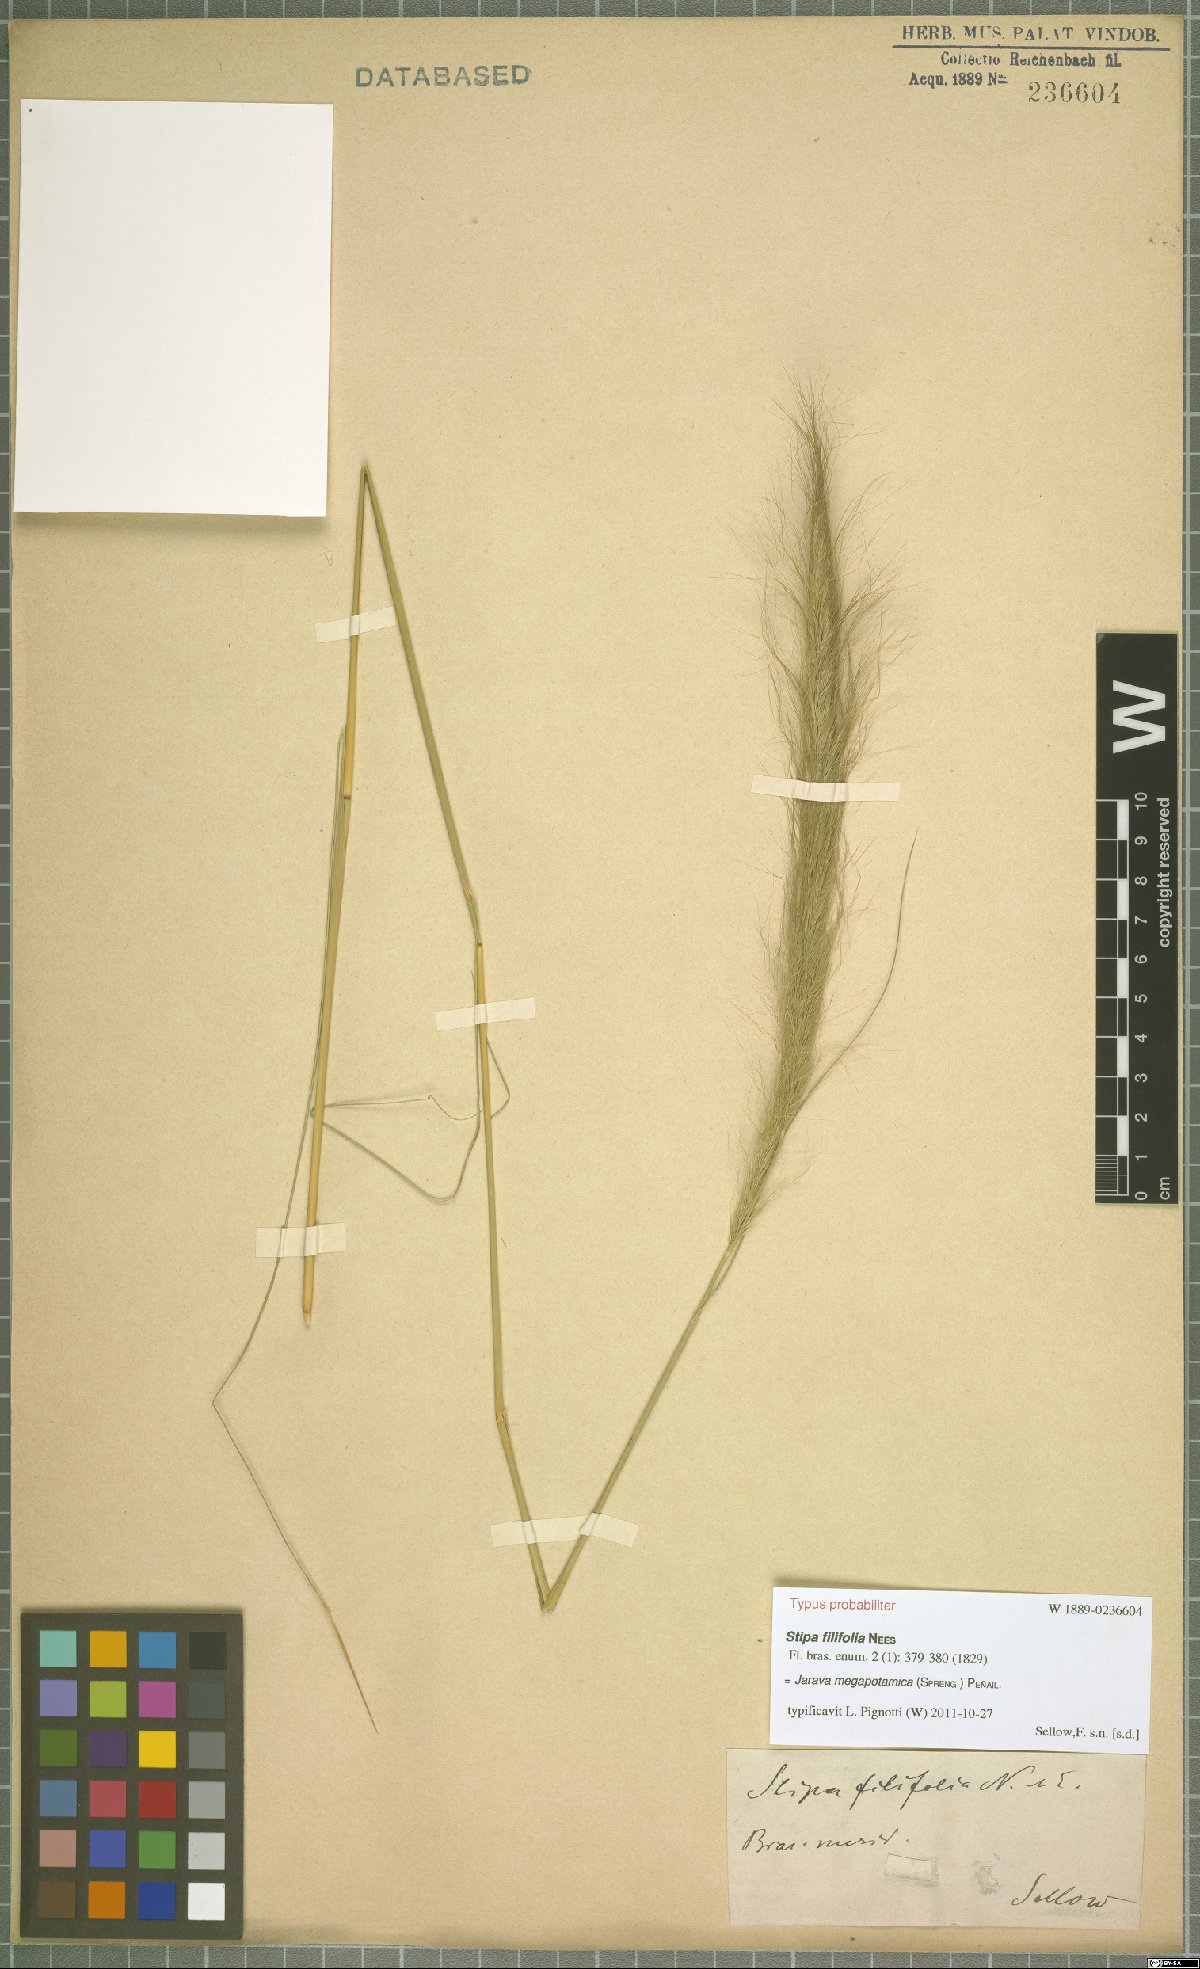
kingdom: Plantae
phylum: Tracheophyta
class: Liliopsida
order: Poales
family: Poaceae
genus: Aristida
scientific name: Aristida megapotamica
